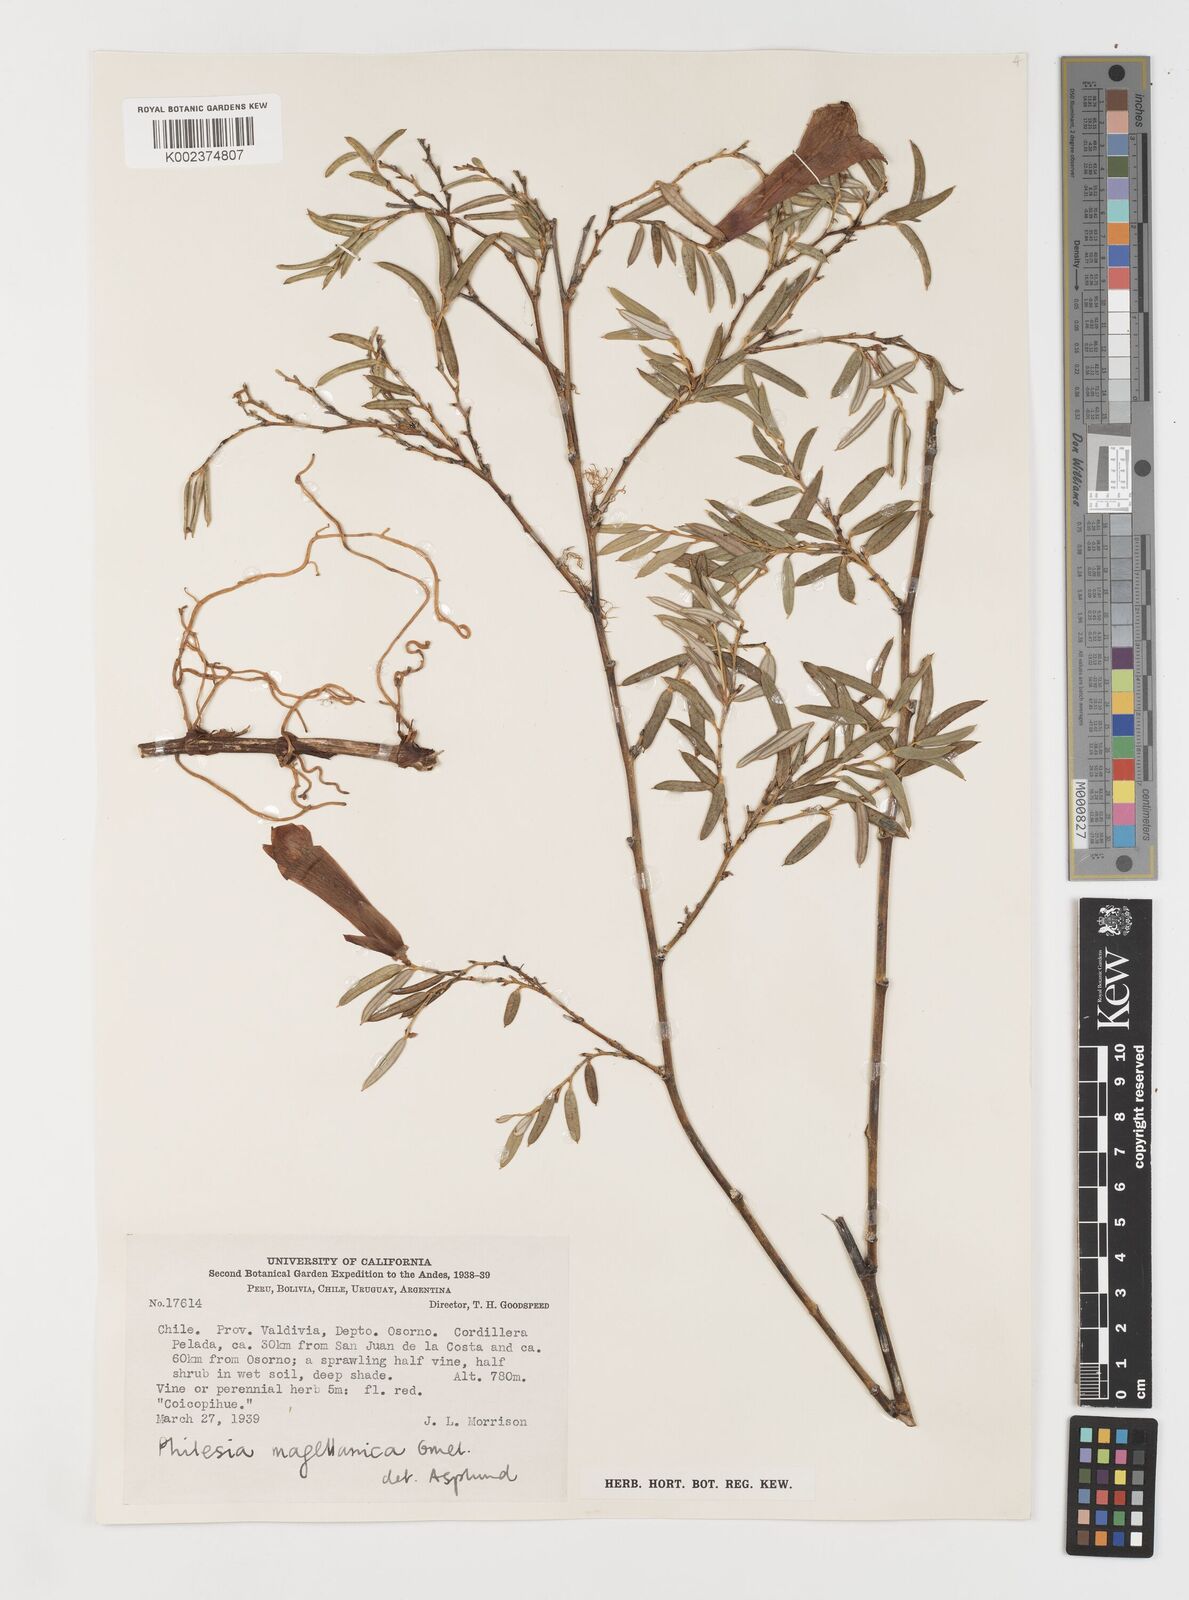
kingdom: Plantae
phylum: Tracheophyta
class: Liliopsida
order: Liliales
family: Philesiaceae
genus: Philesia
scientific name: Philesia magellanica
